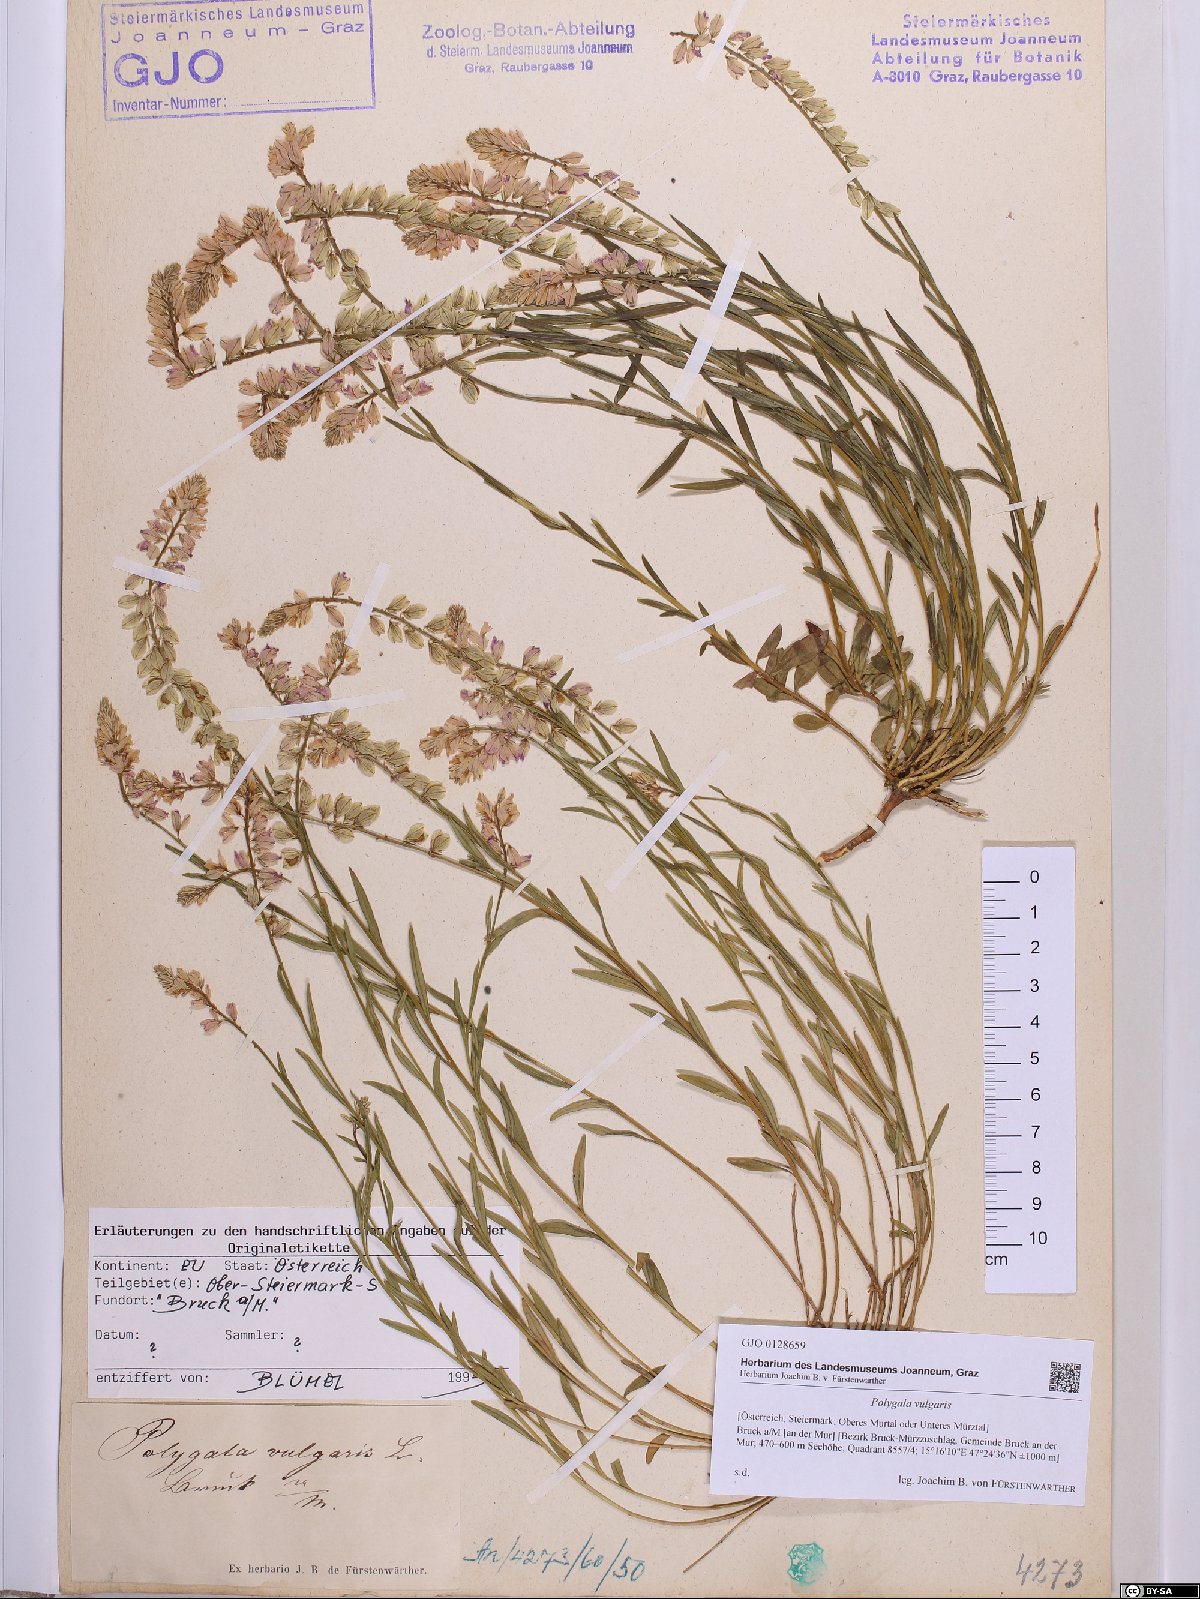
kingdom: Plantae
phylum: Tracheophyta
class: Magnoliopsida
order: Fabales
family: Polygalaceae
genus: Polygala
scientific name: Polygala vulgaris
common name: Common milkwort
